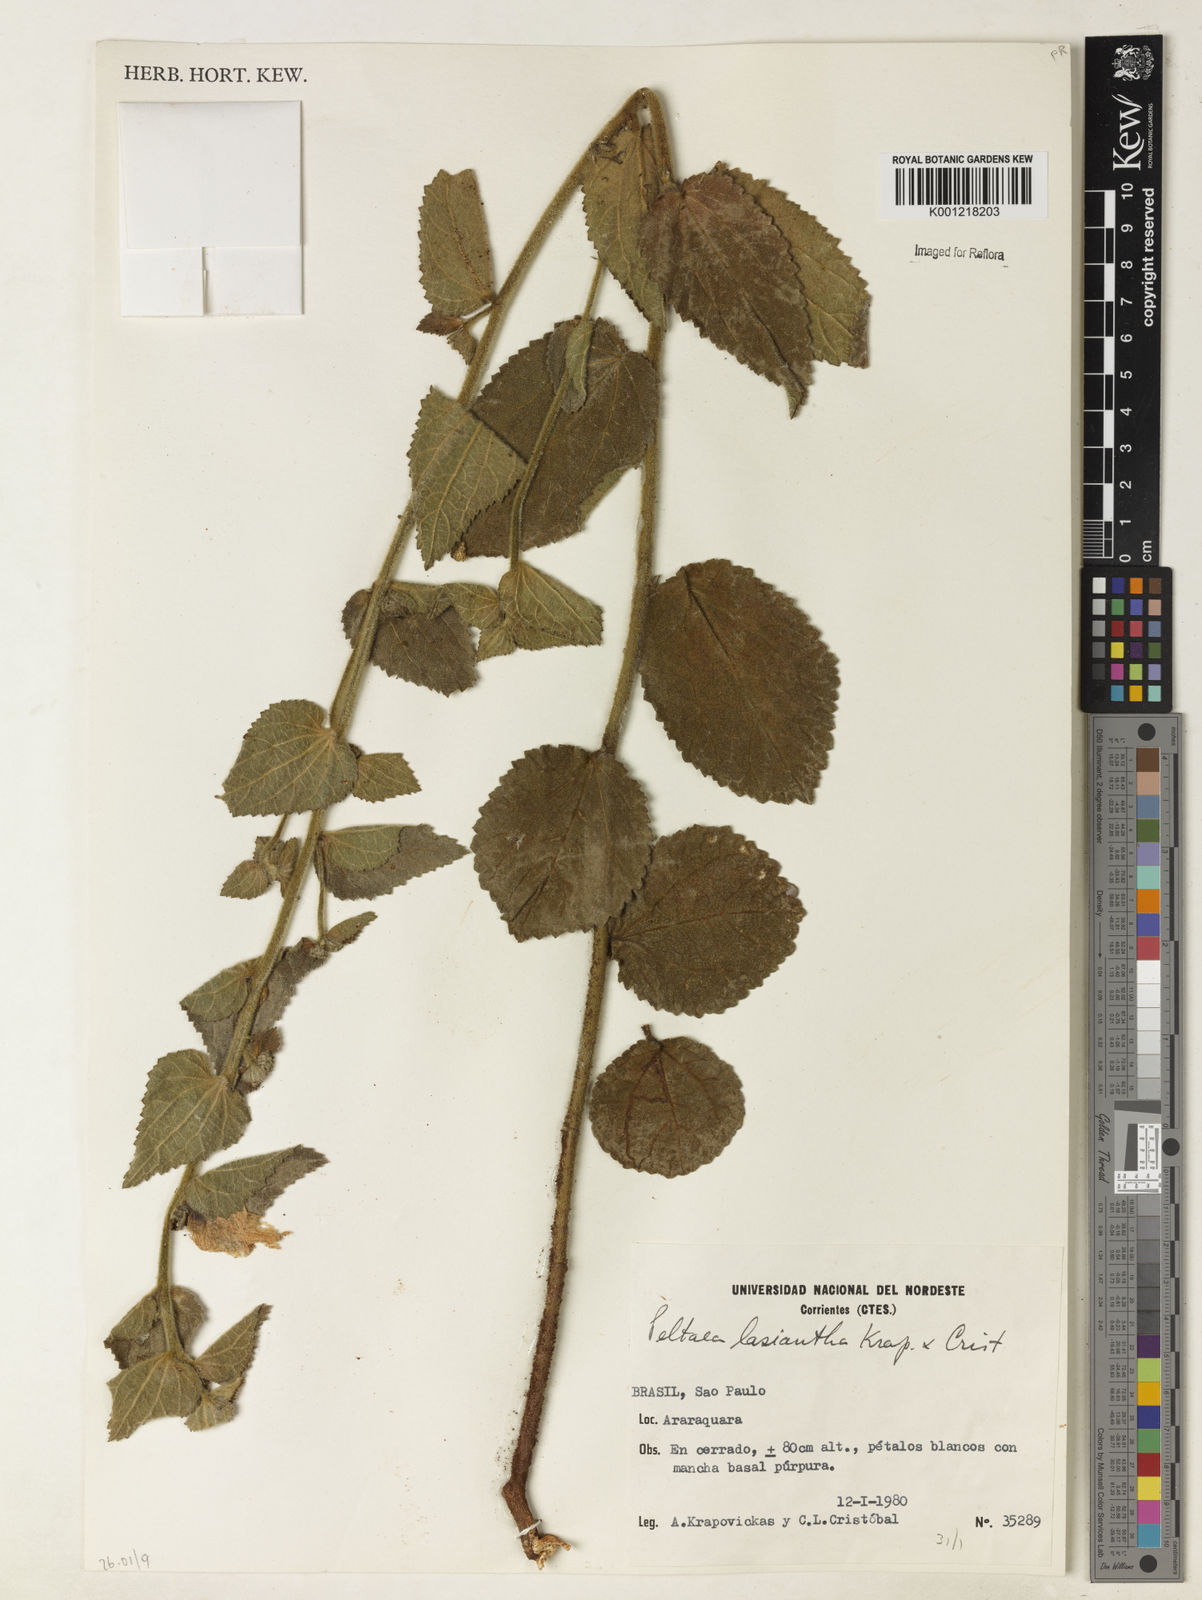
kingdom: Plantae
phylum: Tracheophyta
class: Magnoliopsida
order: Malvales
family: Malvaceae
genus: Peltaea
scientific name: Peltaea
